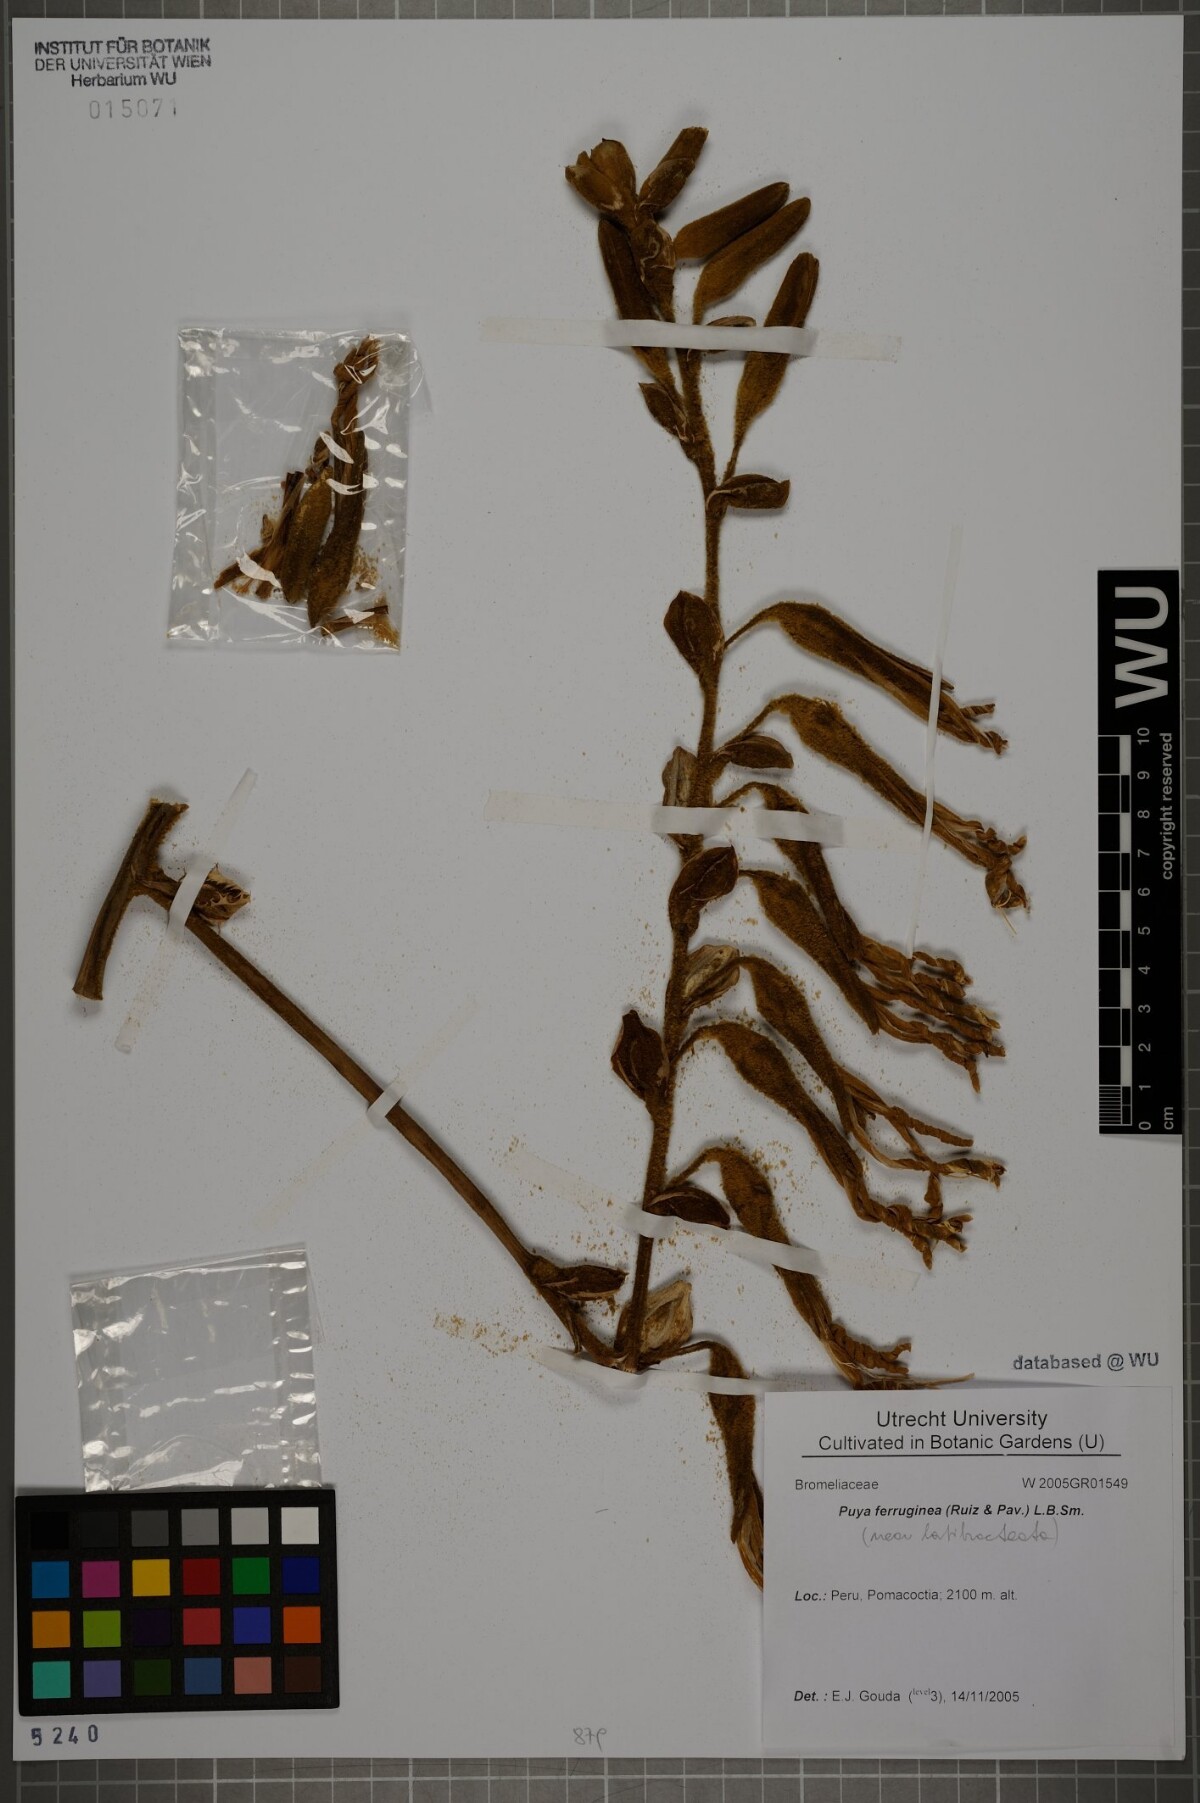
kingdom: Plantae
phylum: Tracheophyta
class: Liliopsida
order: Poales
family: Bromeliaceae
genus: Puya
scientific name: Puya ferruginea
